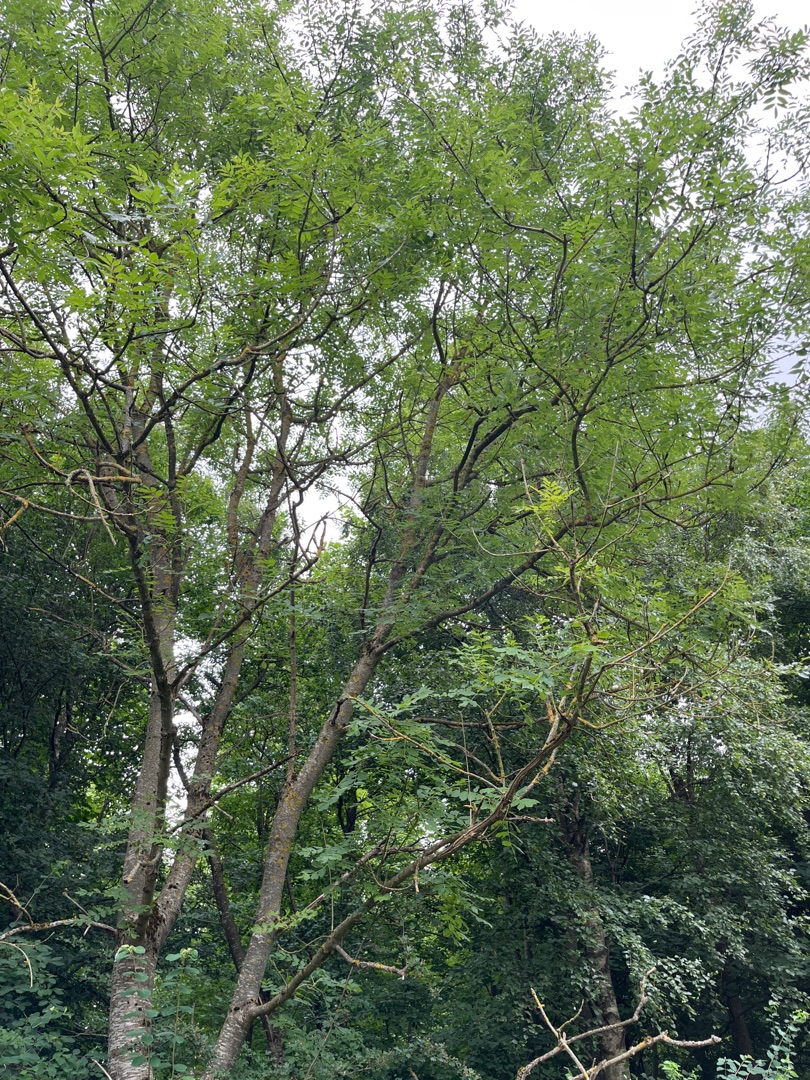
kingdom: Plantae
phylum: Tracheophyta
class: Magnoliopsida
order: Lamiales
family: Oleaceae
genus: Fraxinus
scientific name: Fraxinus excelsior
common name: Ask
